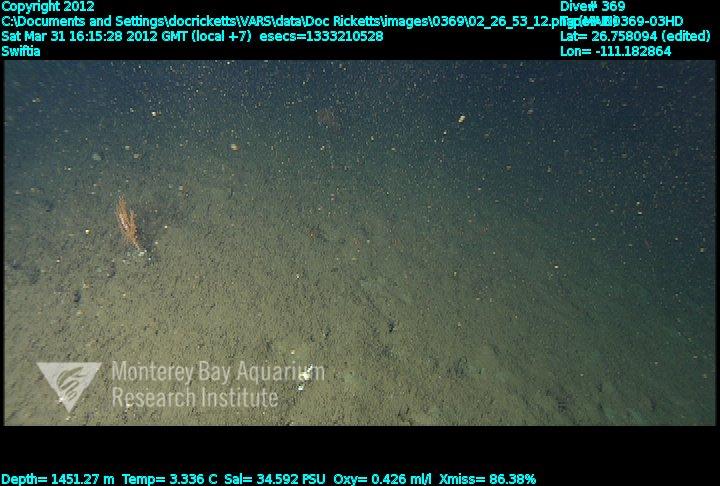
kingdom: Animalia
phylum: Cnidaria
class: Anthozoa
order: Malacalcyonacea
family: Plexauridae
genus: Swiftia
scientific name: Swiftia
